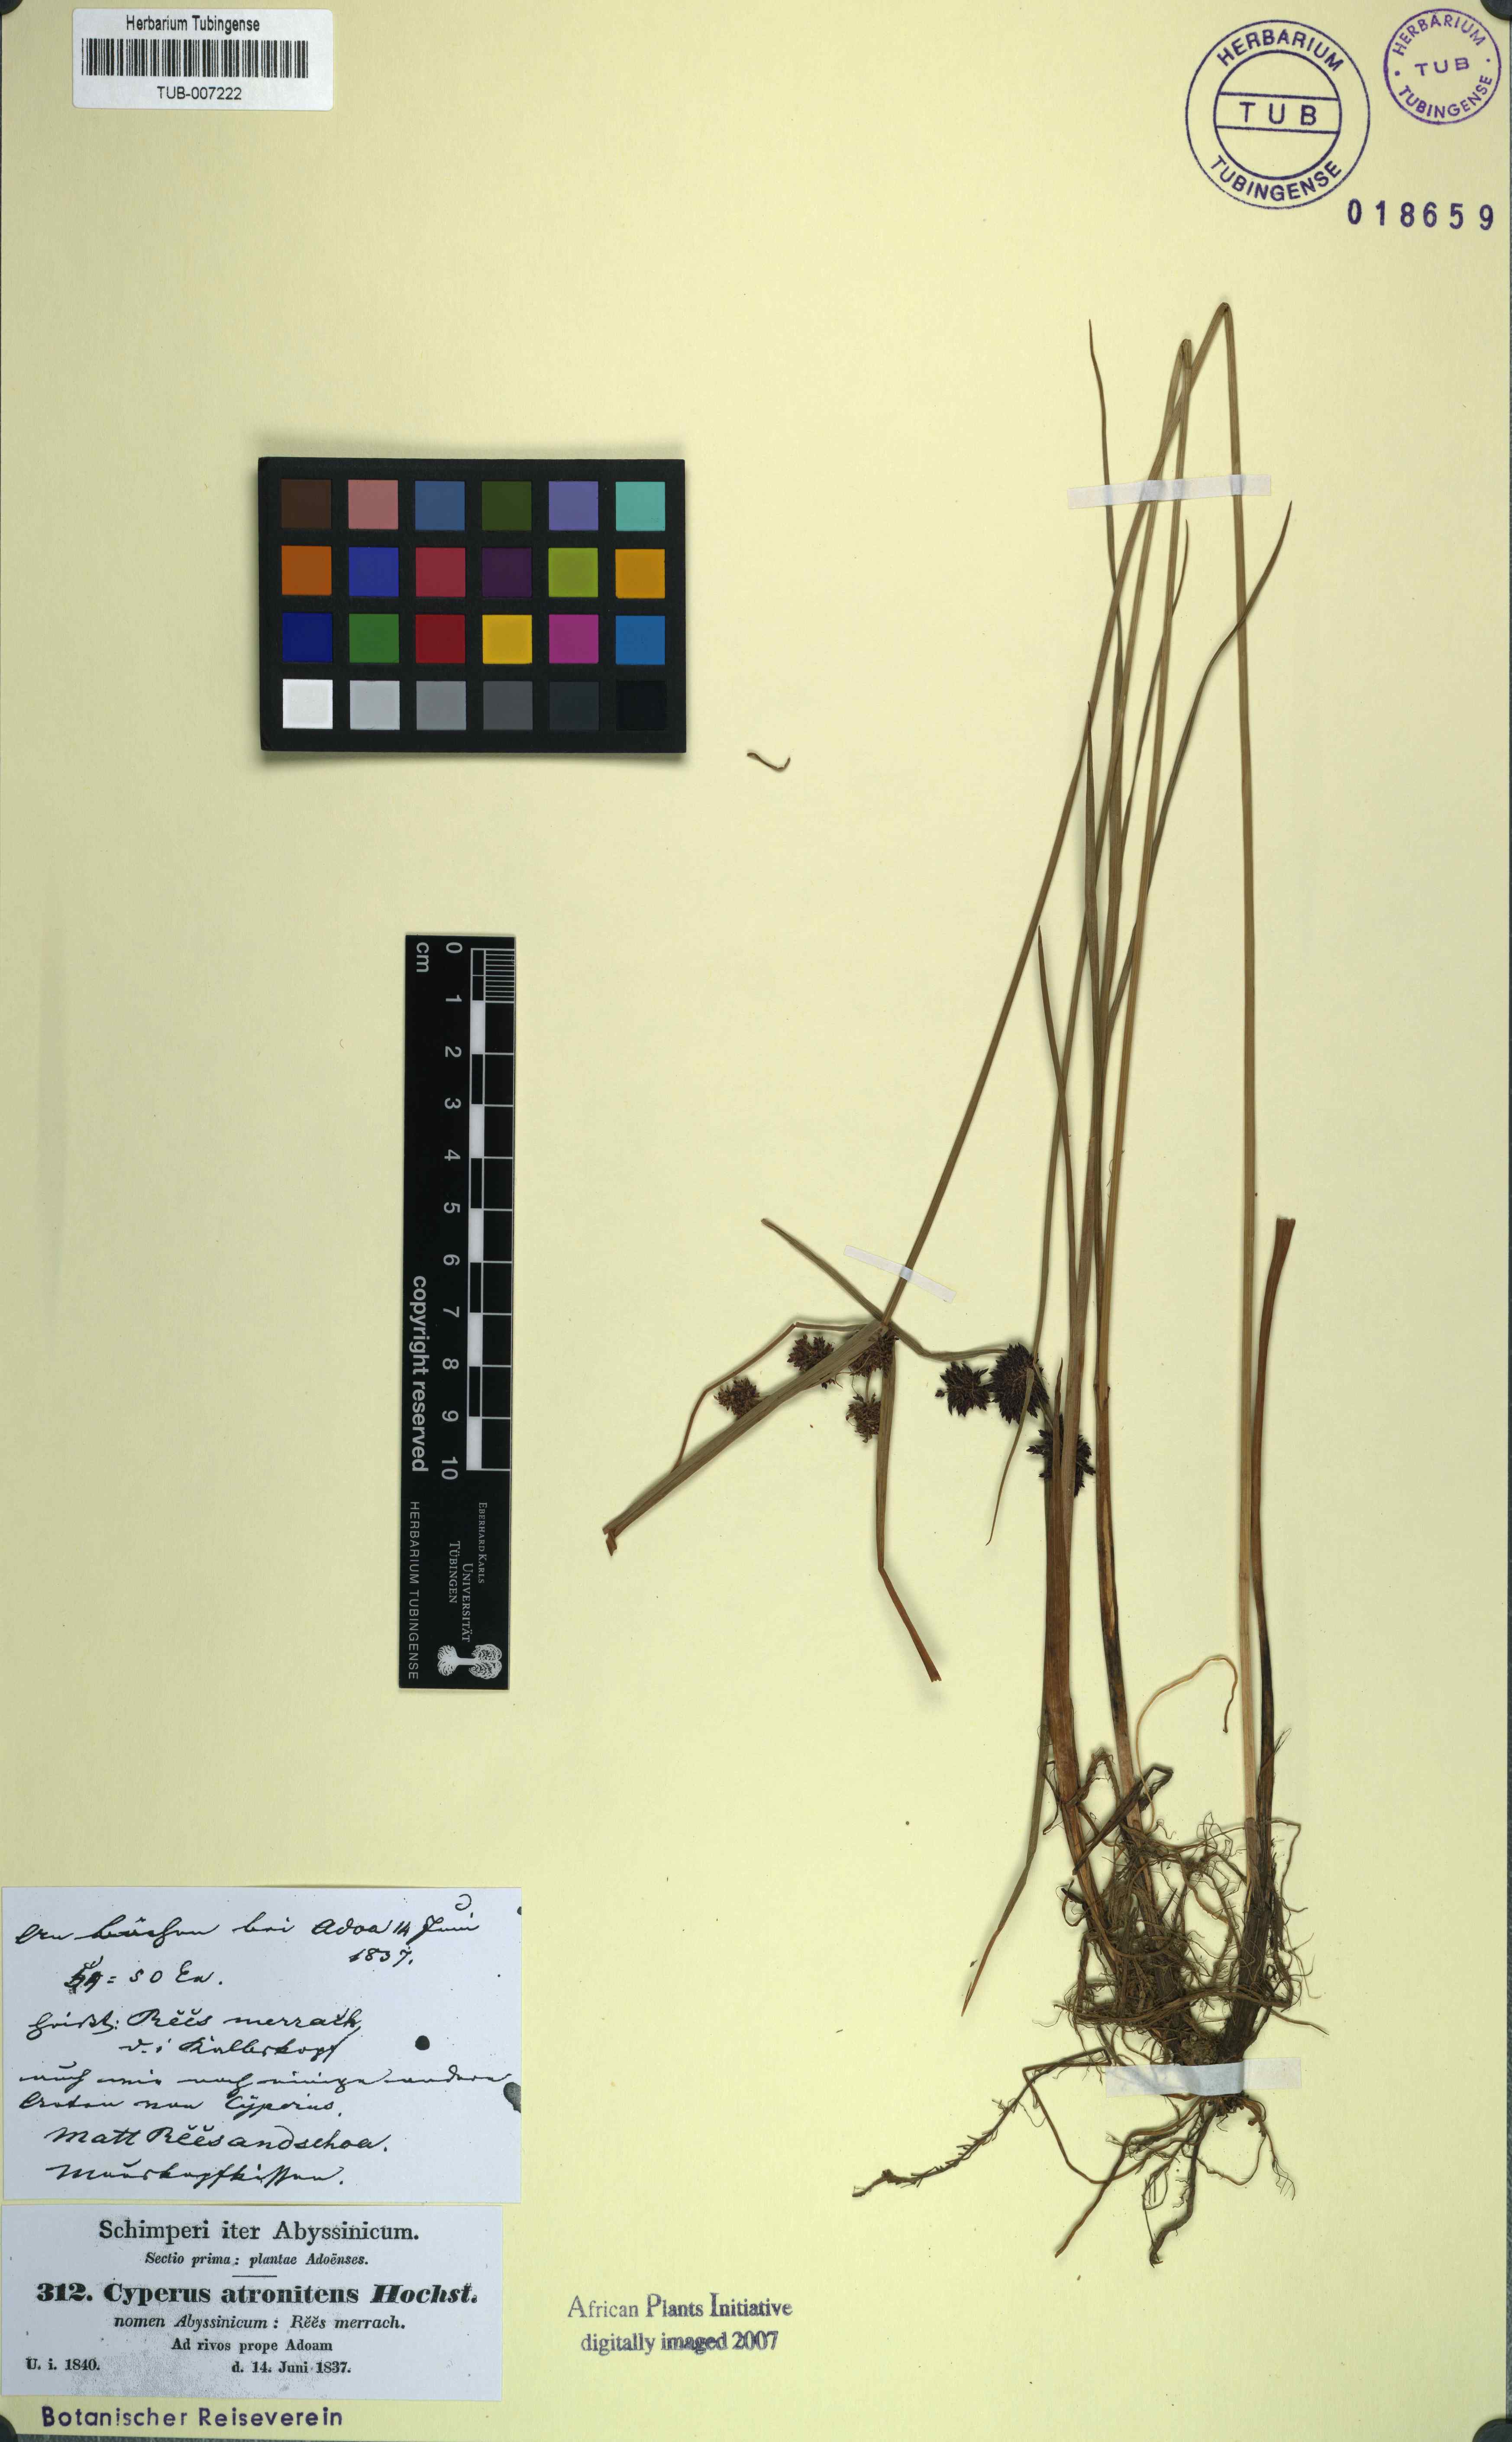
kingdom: Plantae
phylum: Tracheophyta
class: Liliopsida
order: Poales
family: Cyperaceae
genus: Cyperus
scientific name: Cyperus elegantulus
